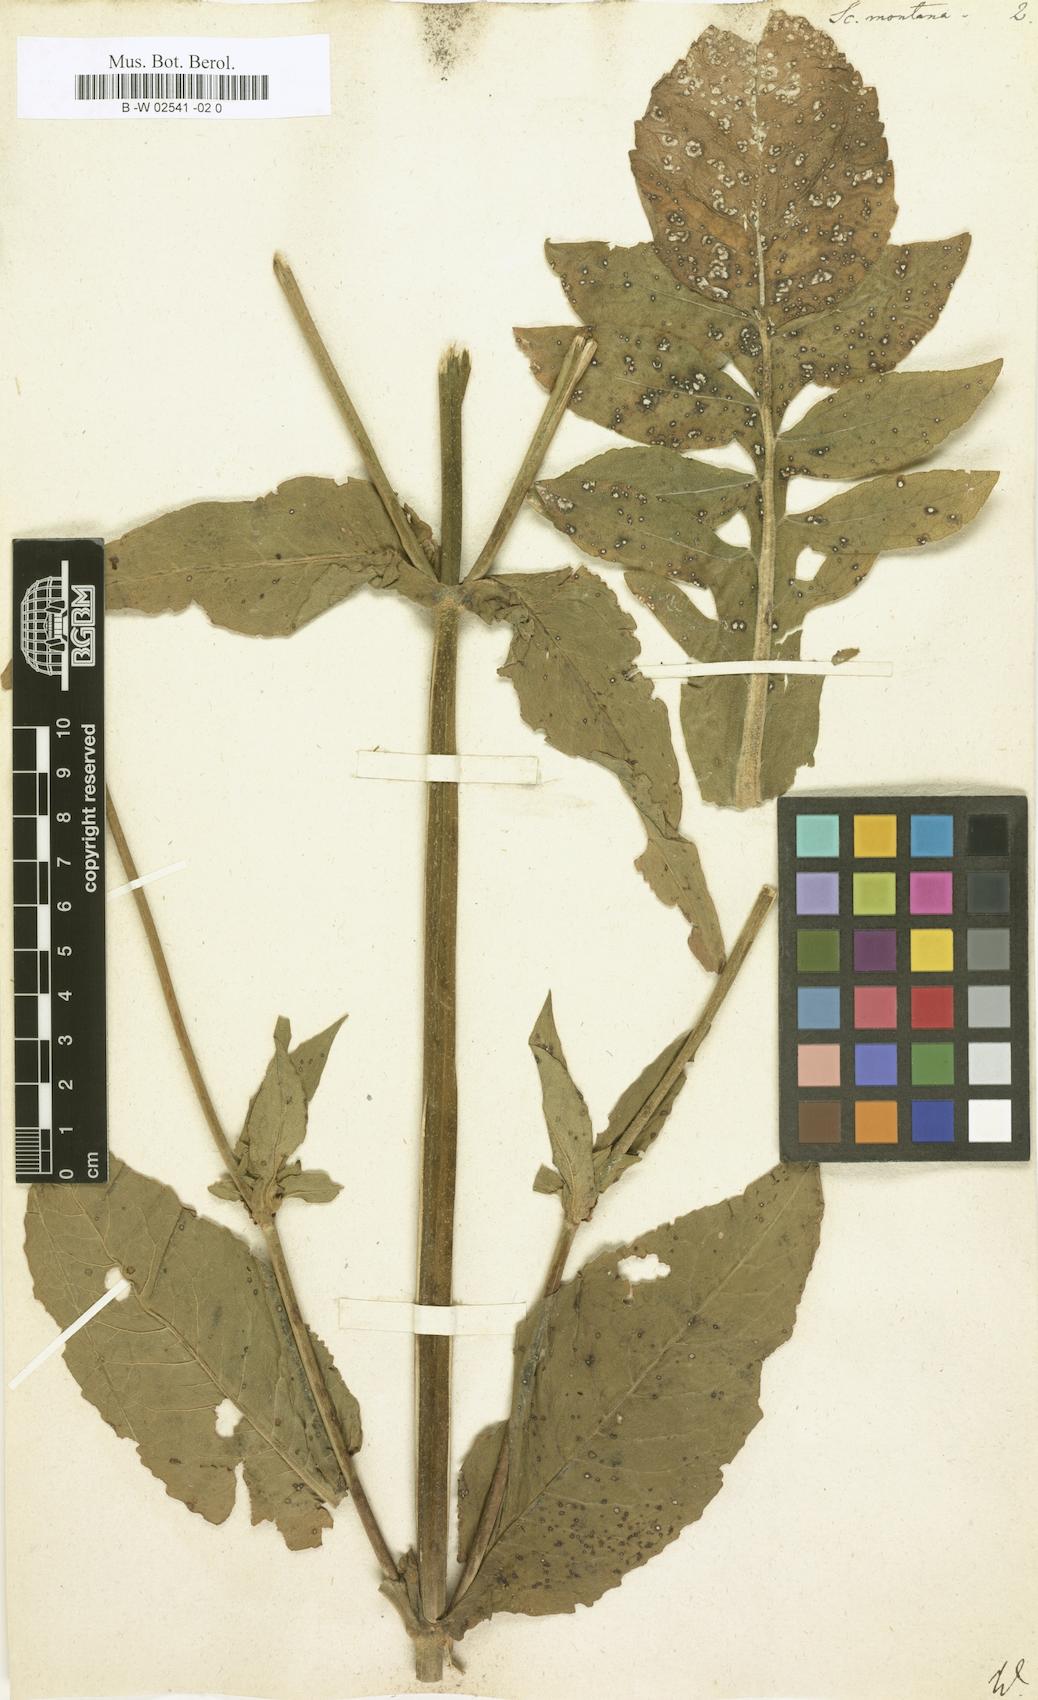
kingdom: Plantae
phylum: Tracheophyta
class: Magnoliopsida
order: Dipsacales
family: Caprifoliaceae
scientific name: Caprifoliaceae
